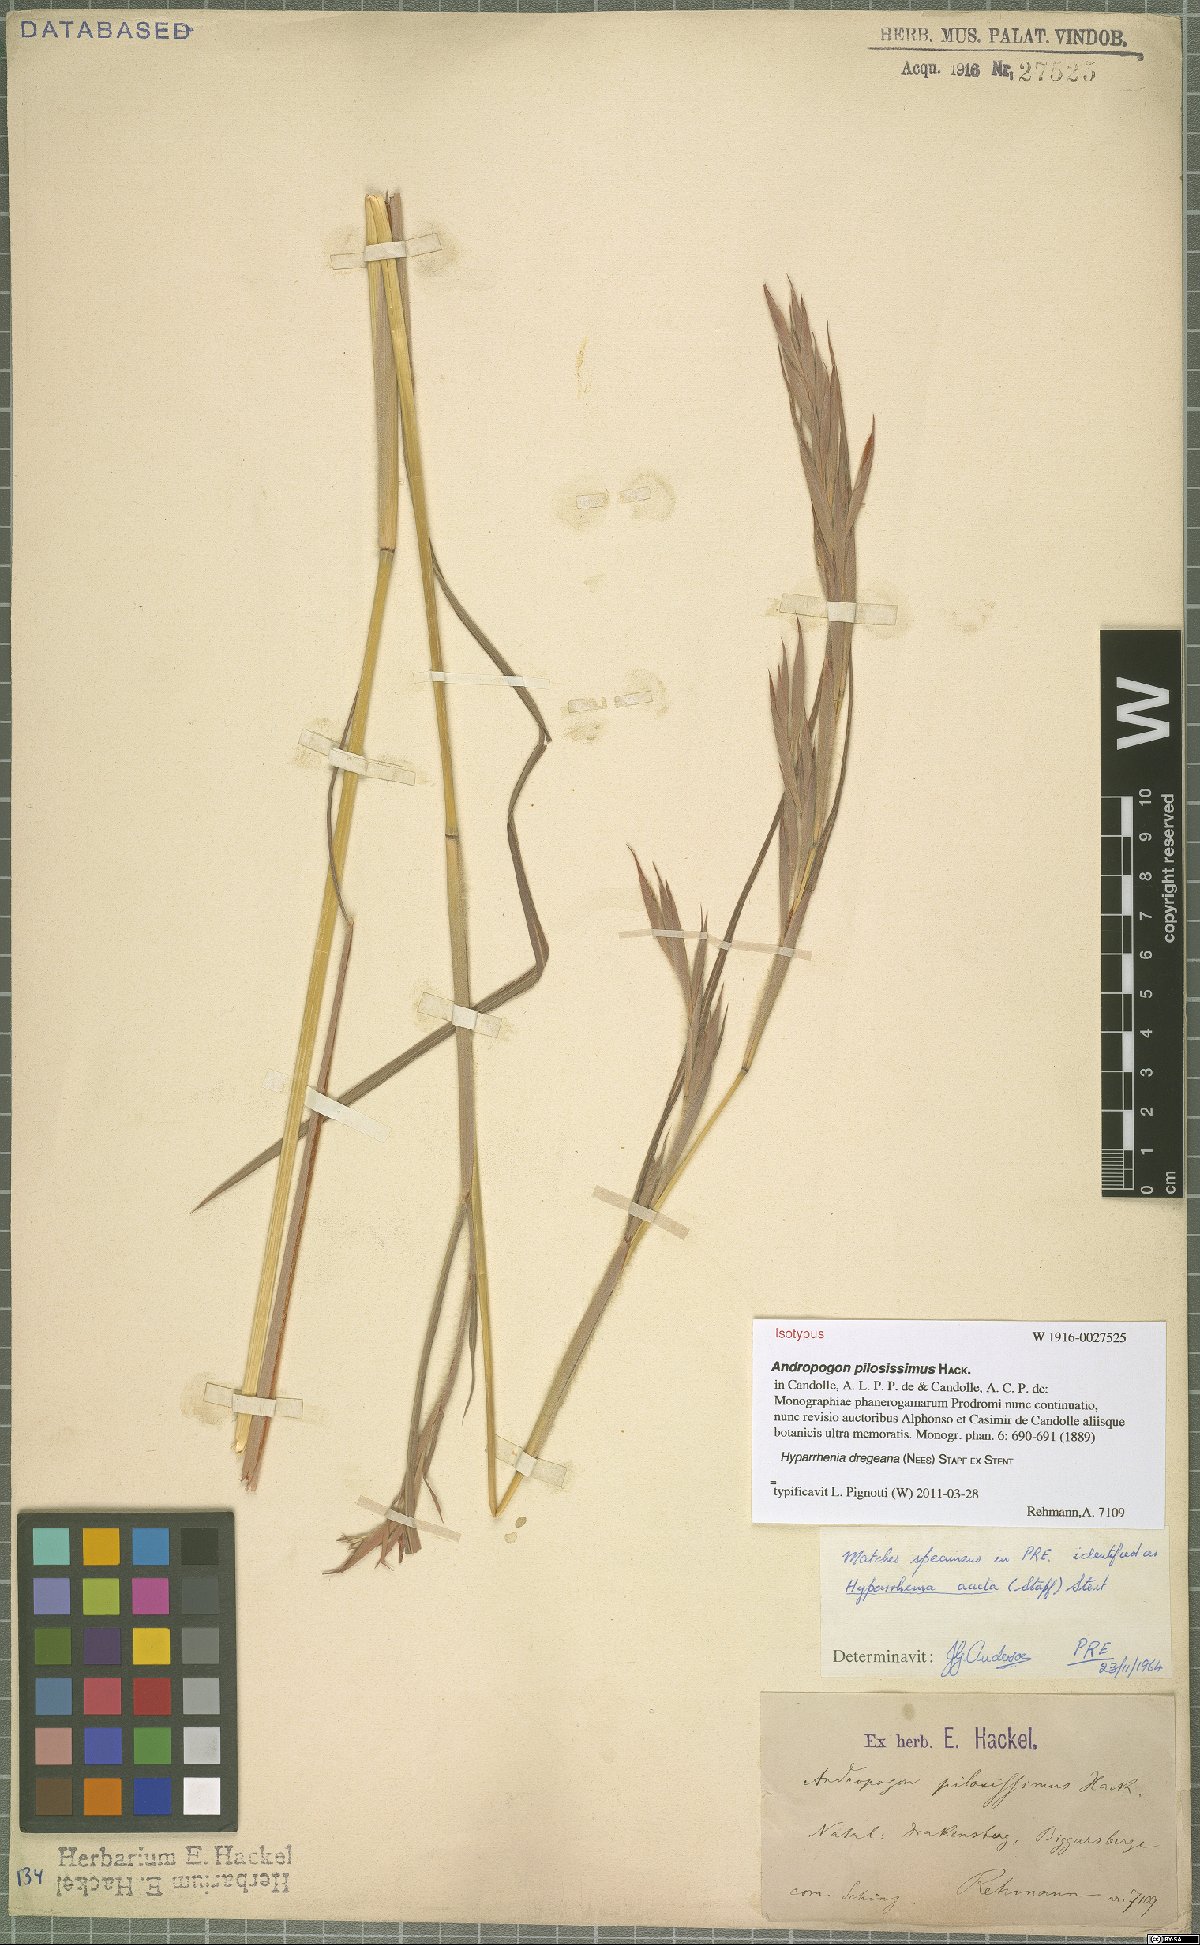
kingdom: Plantae
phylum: Tracheophyta
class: Liliopsida
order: Poales
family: Poaceae
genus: Hyparrhenia
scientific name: Hyparrhenia dregeana
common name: Silky thatching grass
